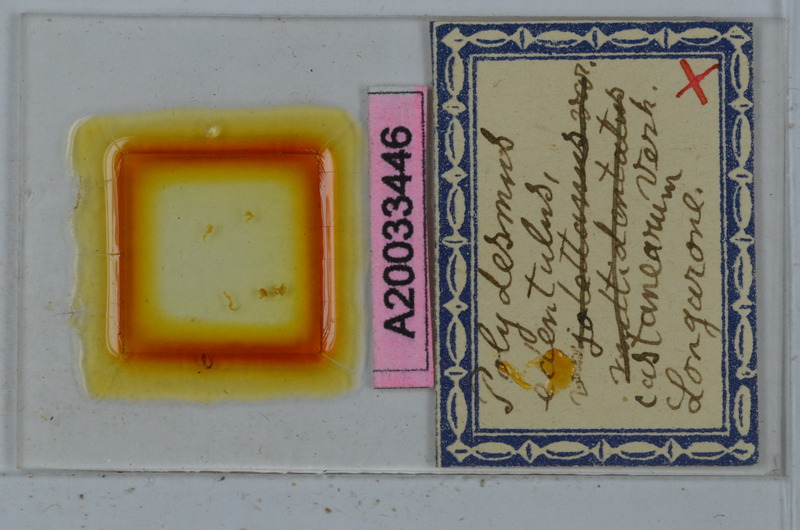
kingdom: Animalia
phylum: Arthropoda
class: Diplopoda
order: Polydesmida
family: Polydesmidae
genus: Polydesmus
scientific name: Polydesmus edentulus
